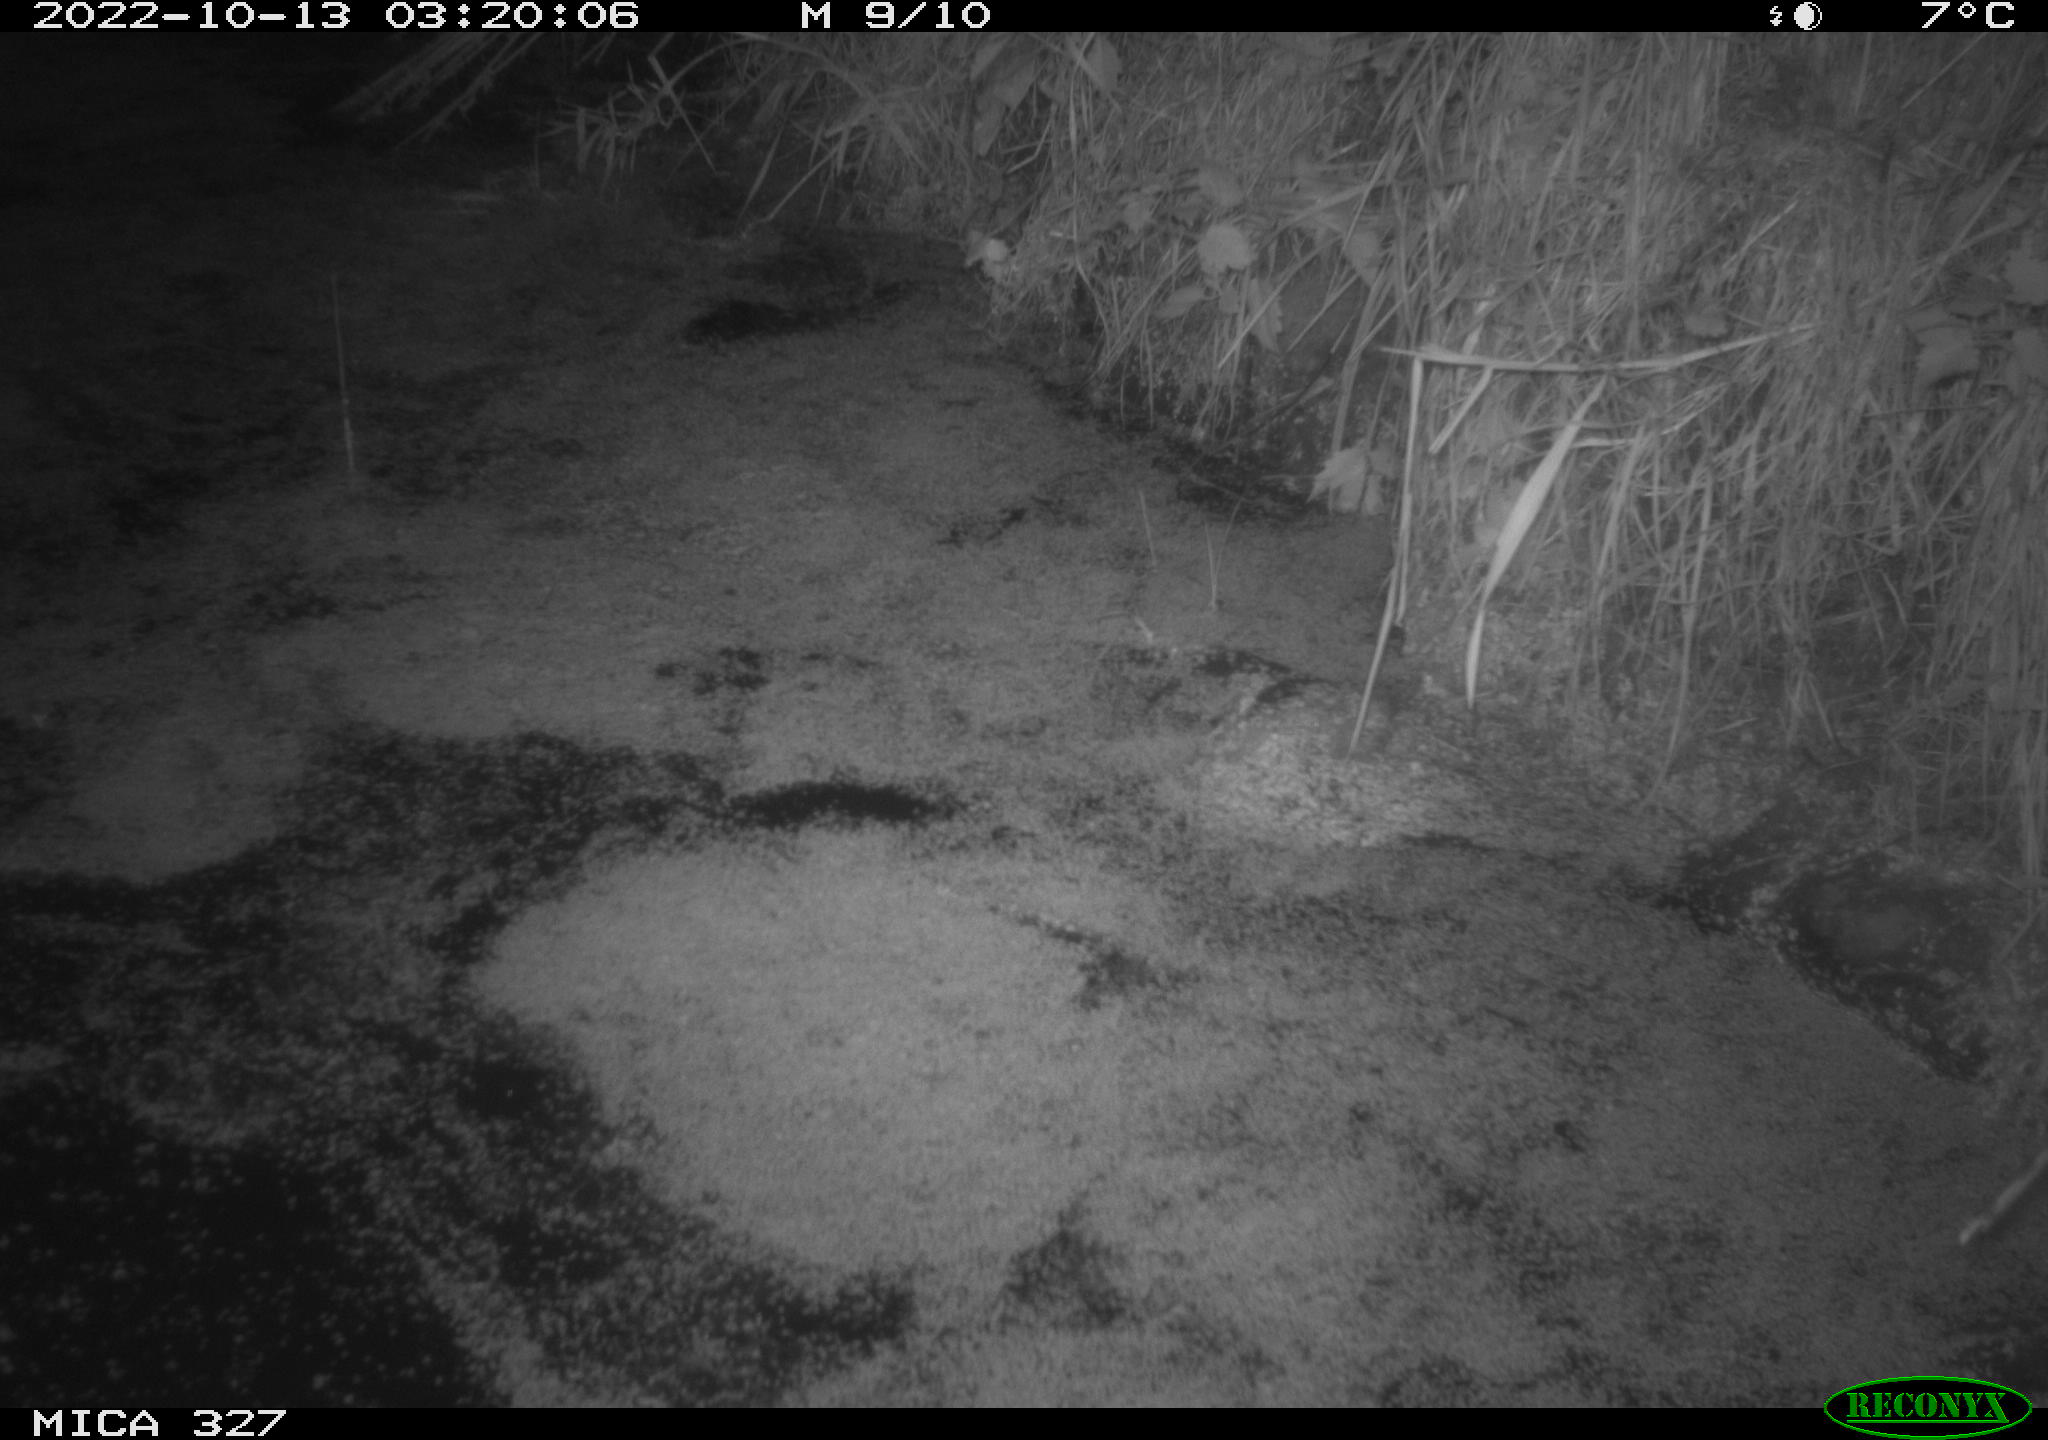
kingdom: Animalia
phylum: Chordata
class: Mammalia
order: Rodentia
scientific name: Rodentia
